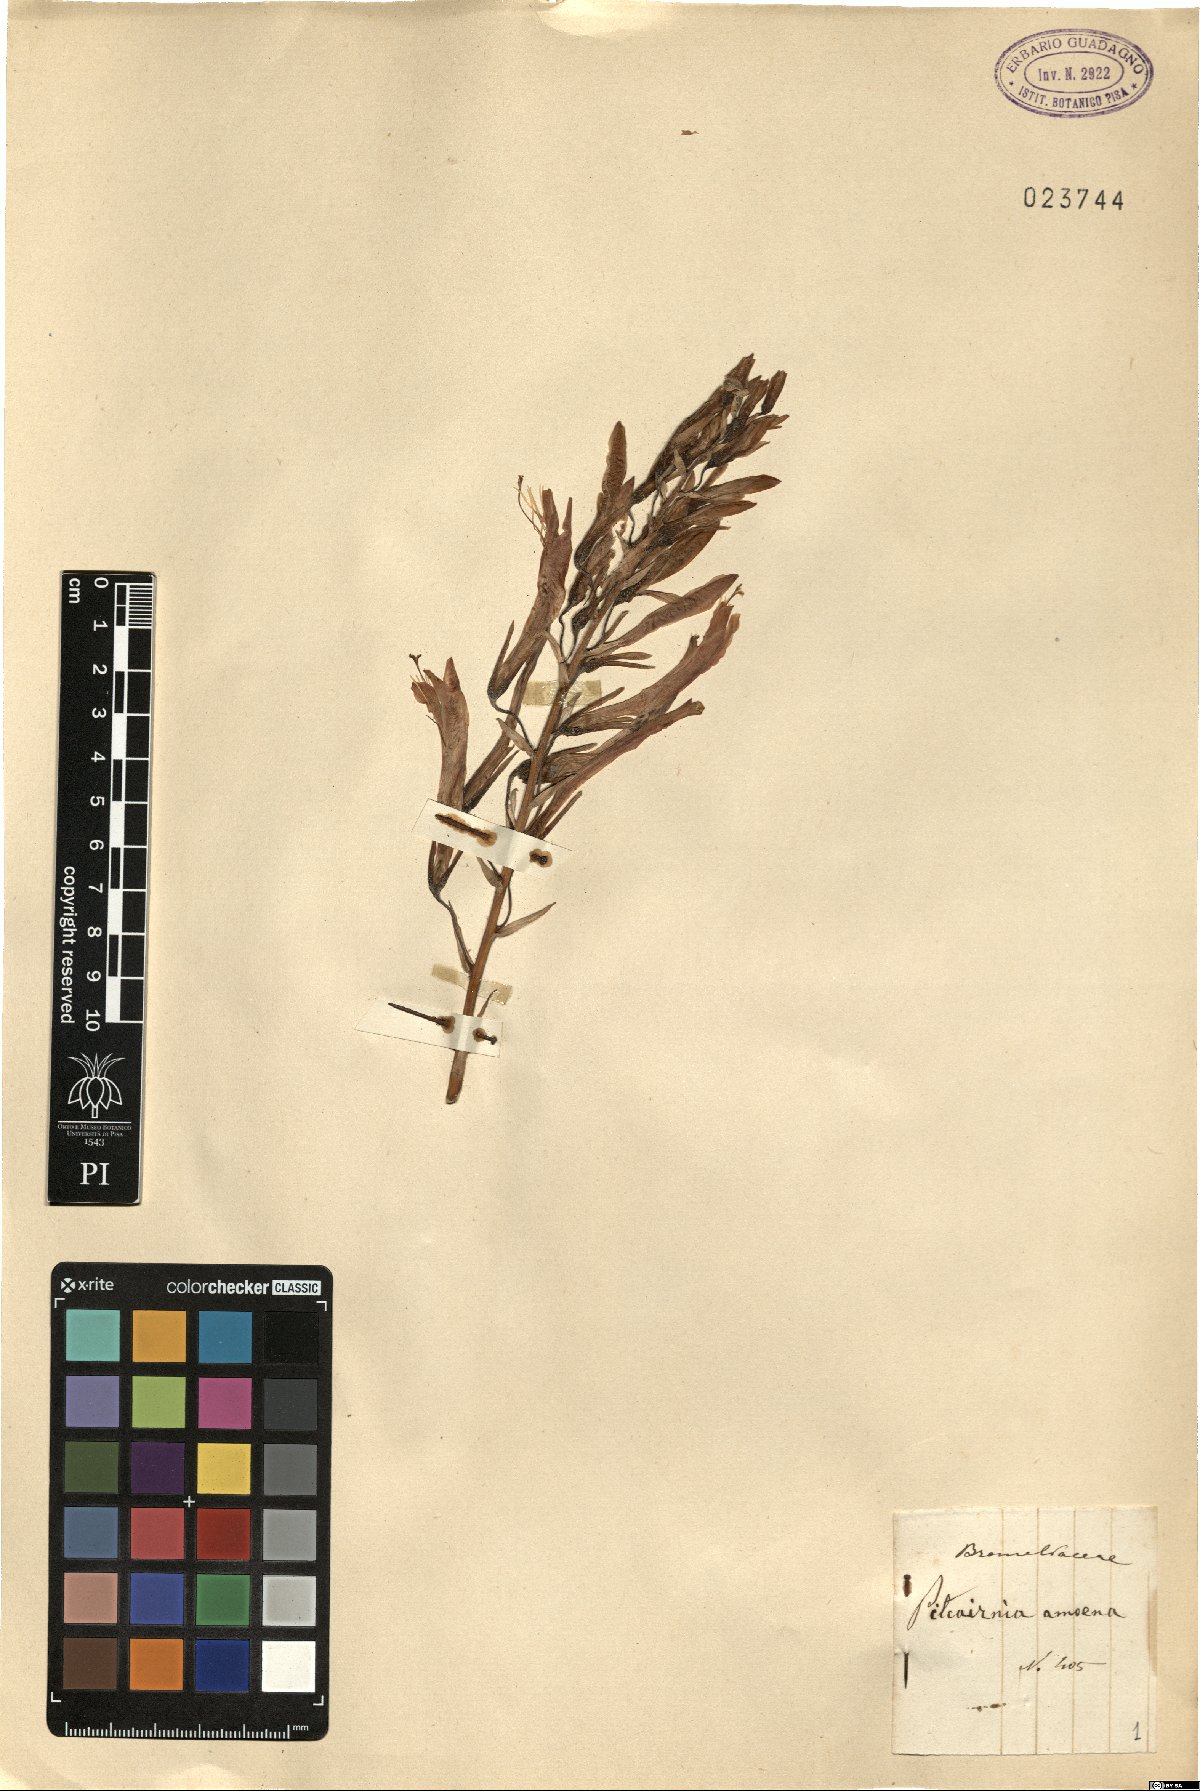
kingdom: Plantae
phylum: Tracheophyta
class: Liliopsida
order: Poales
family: Bromeliaceae
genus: Pitcairnia
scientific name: Pitcairnia
